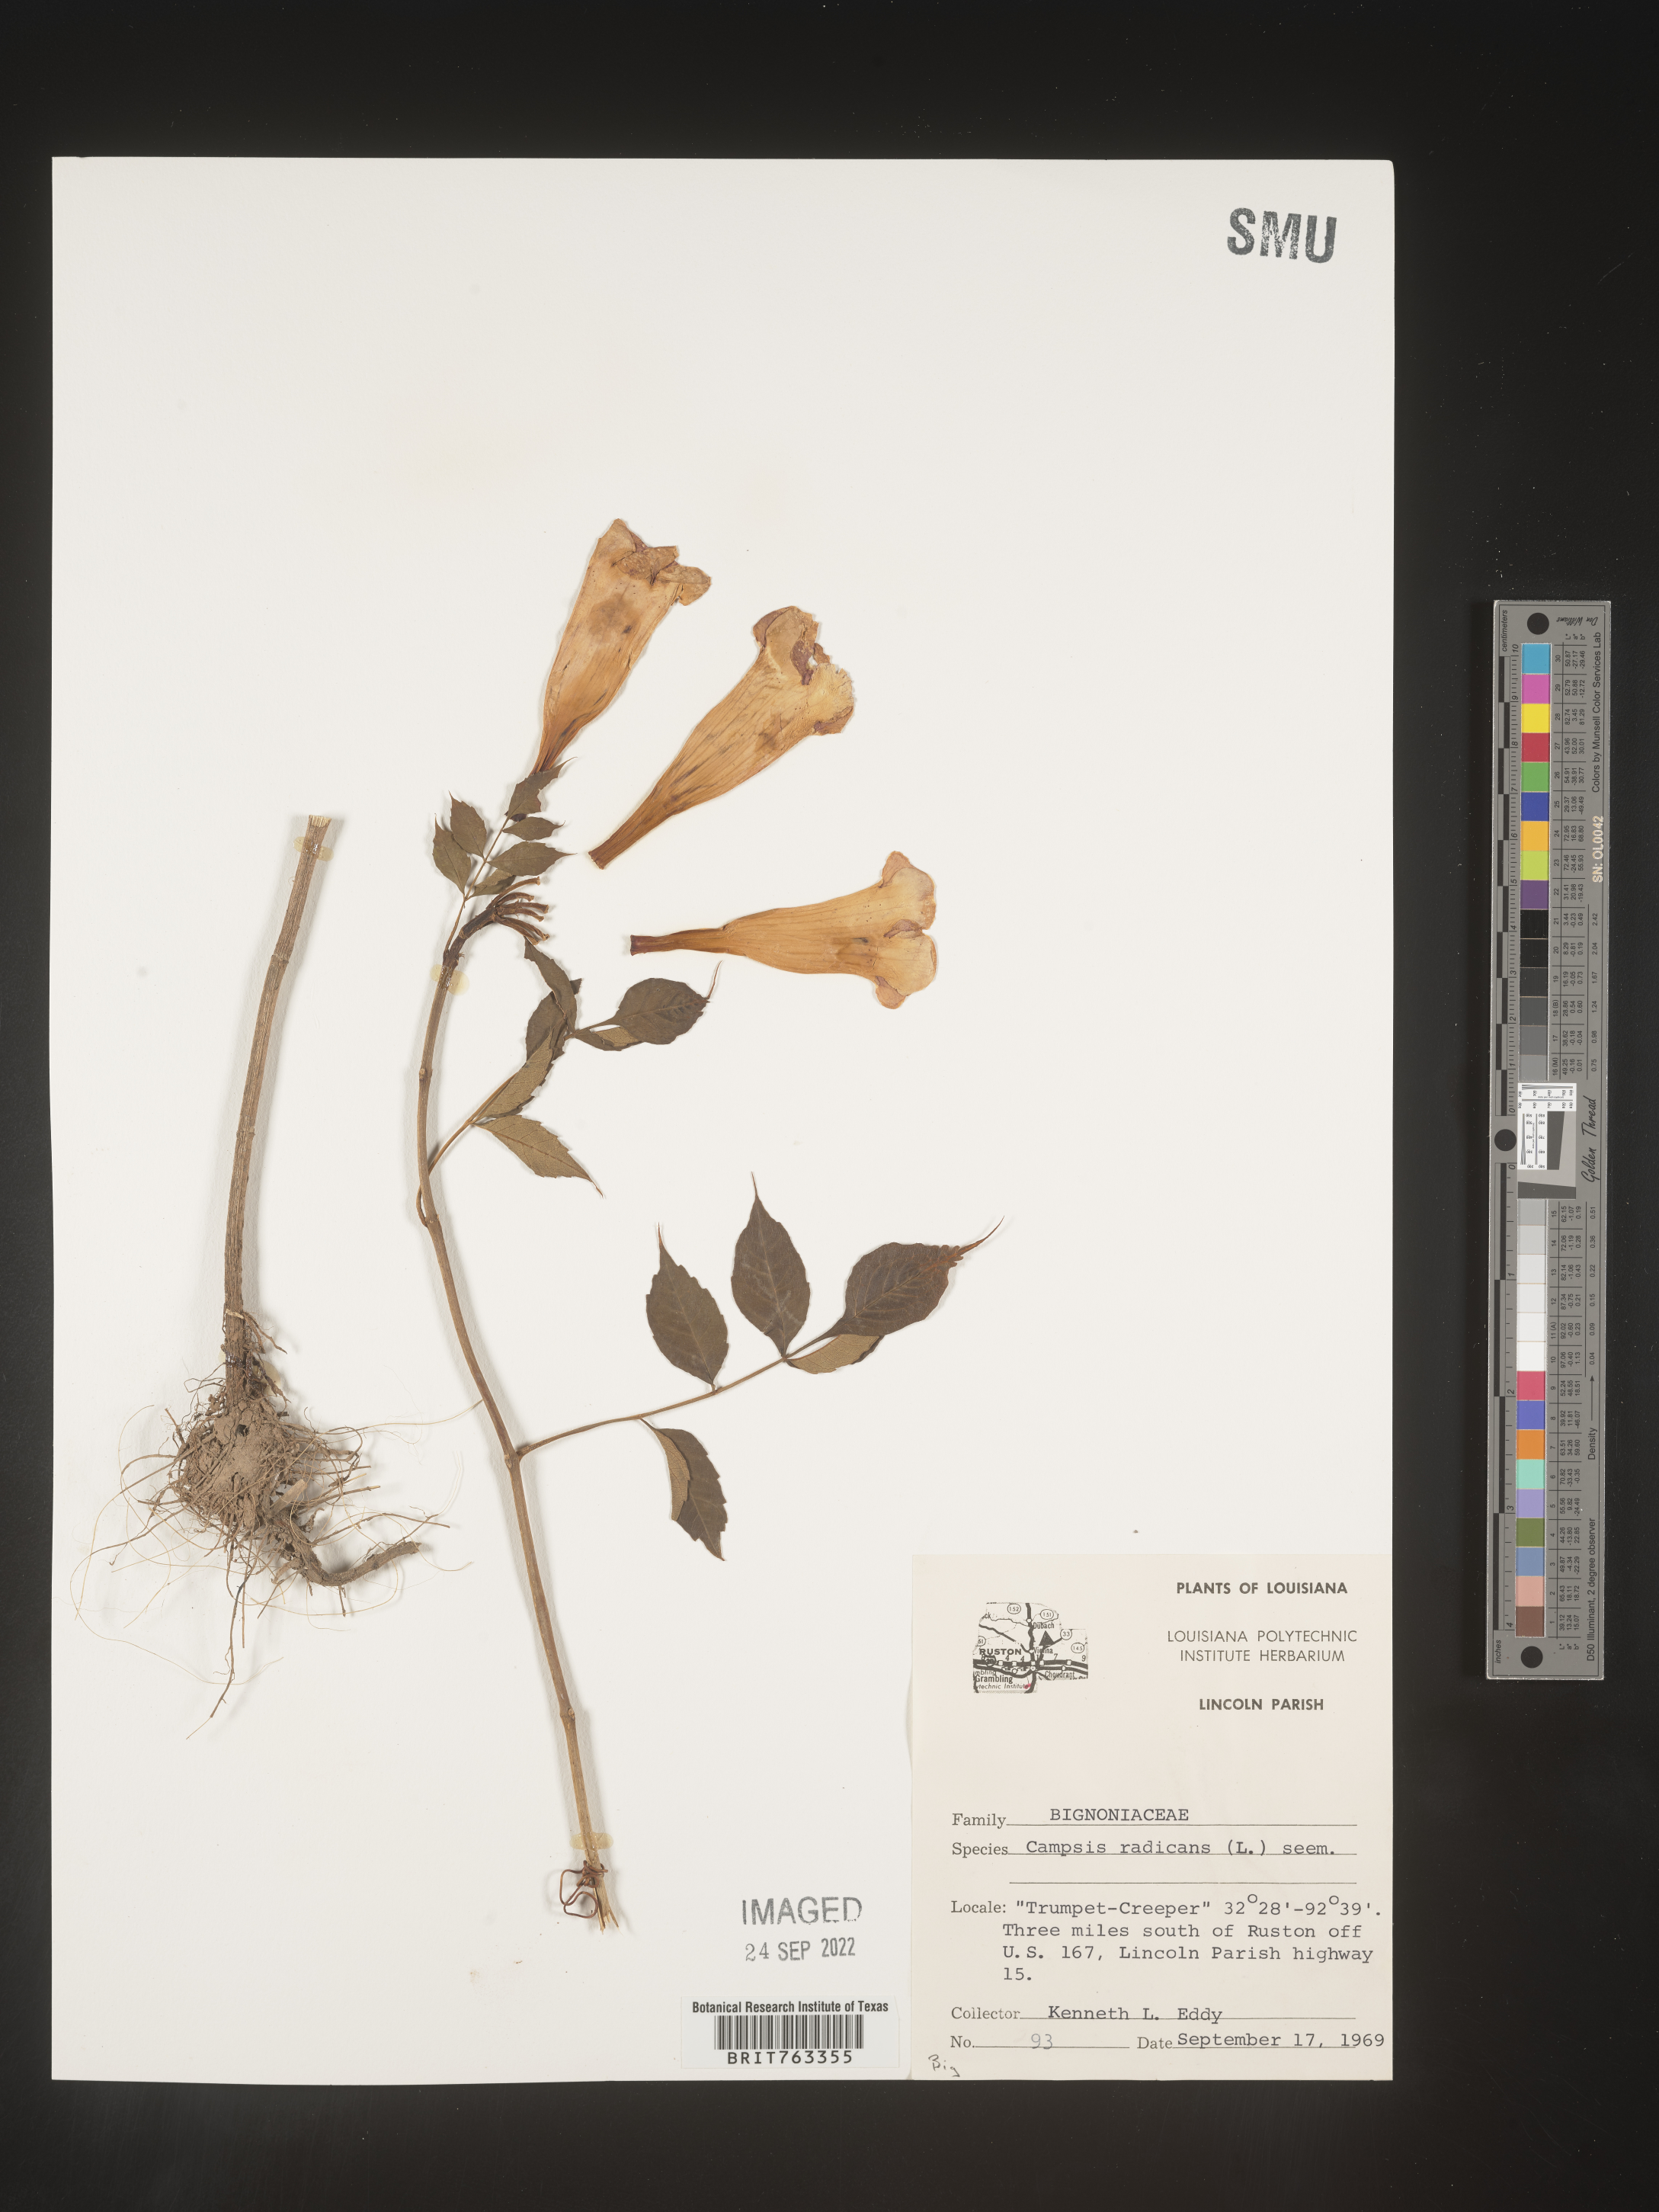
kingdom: Plantae
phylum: Tracheophyta
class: Magnoliopsida
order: Lamiales
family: Bignoniaceae
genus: Campsis
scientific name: Campsis radicans
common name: Trumpet-creeper
